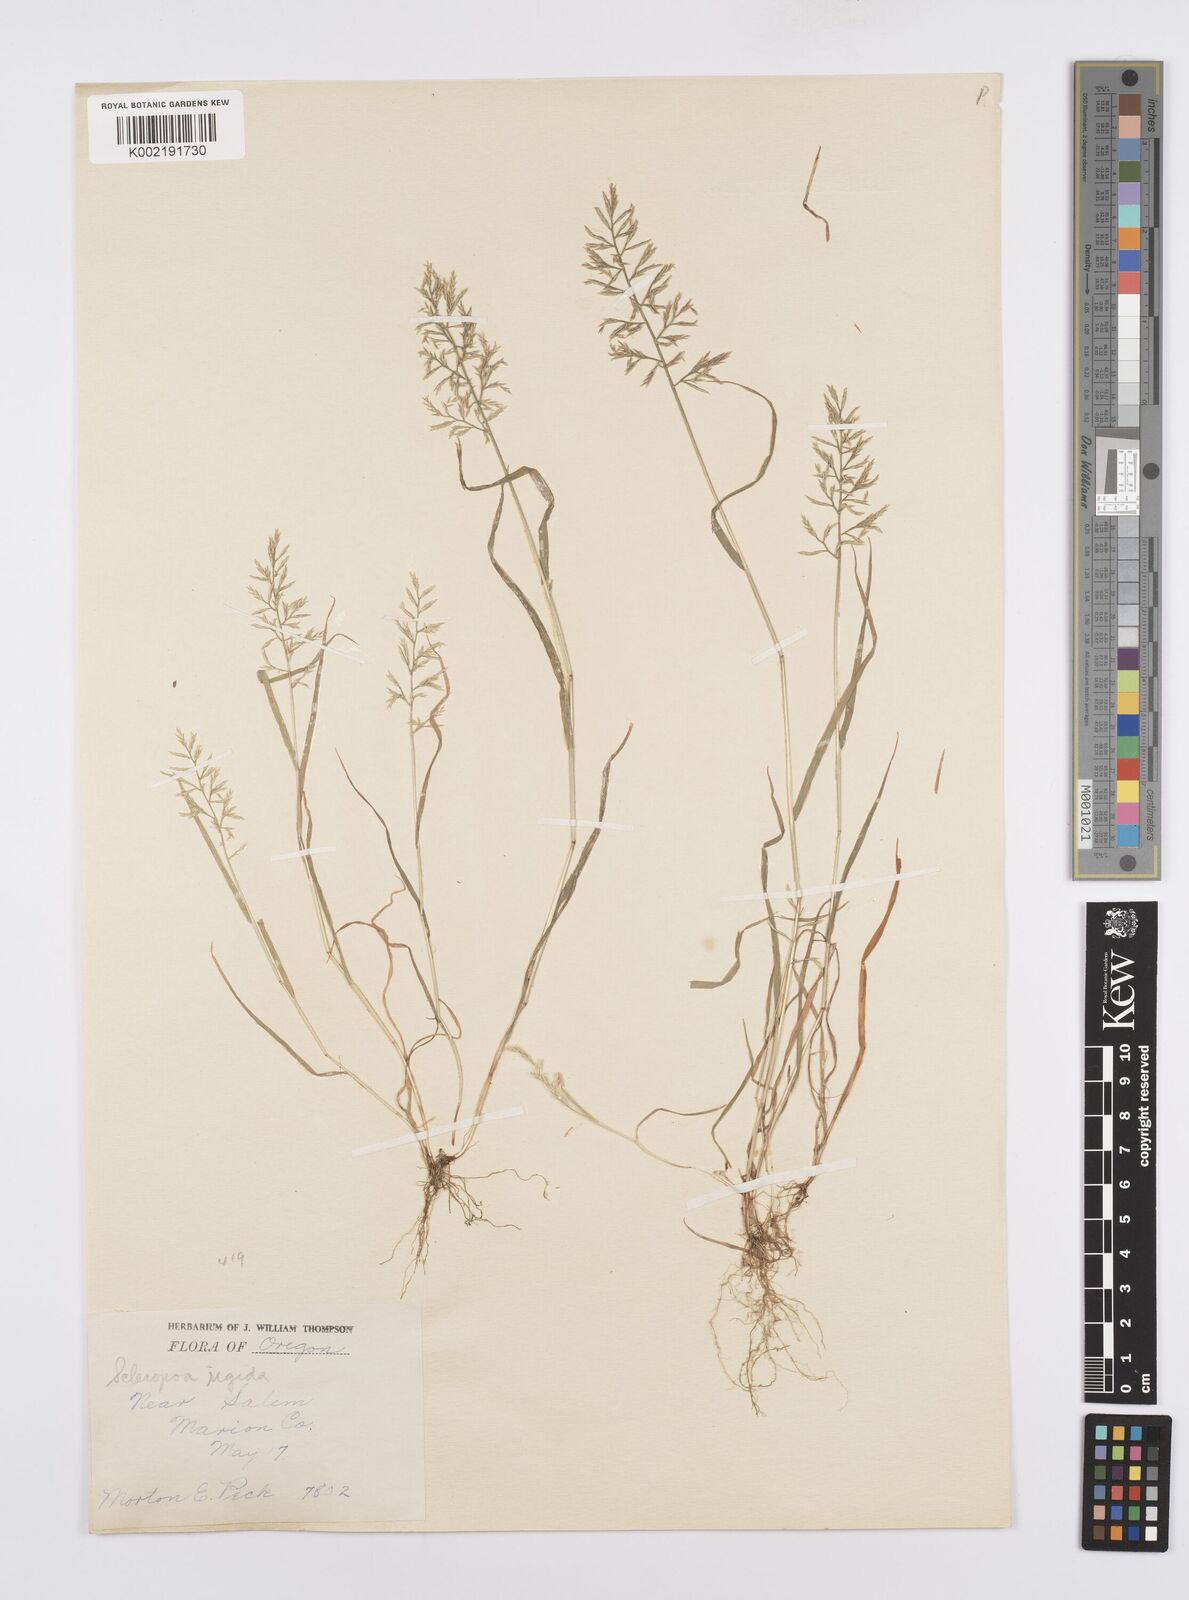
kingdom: Plantae
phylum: Tracheophyta
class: Liliopsida
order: Poales
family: Poaceae
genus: Catapodium
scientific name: Catapodium rigidum
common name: Fern-grass
